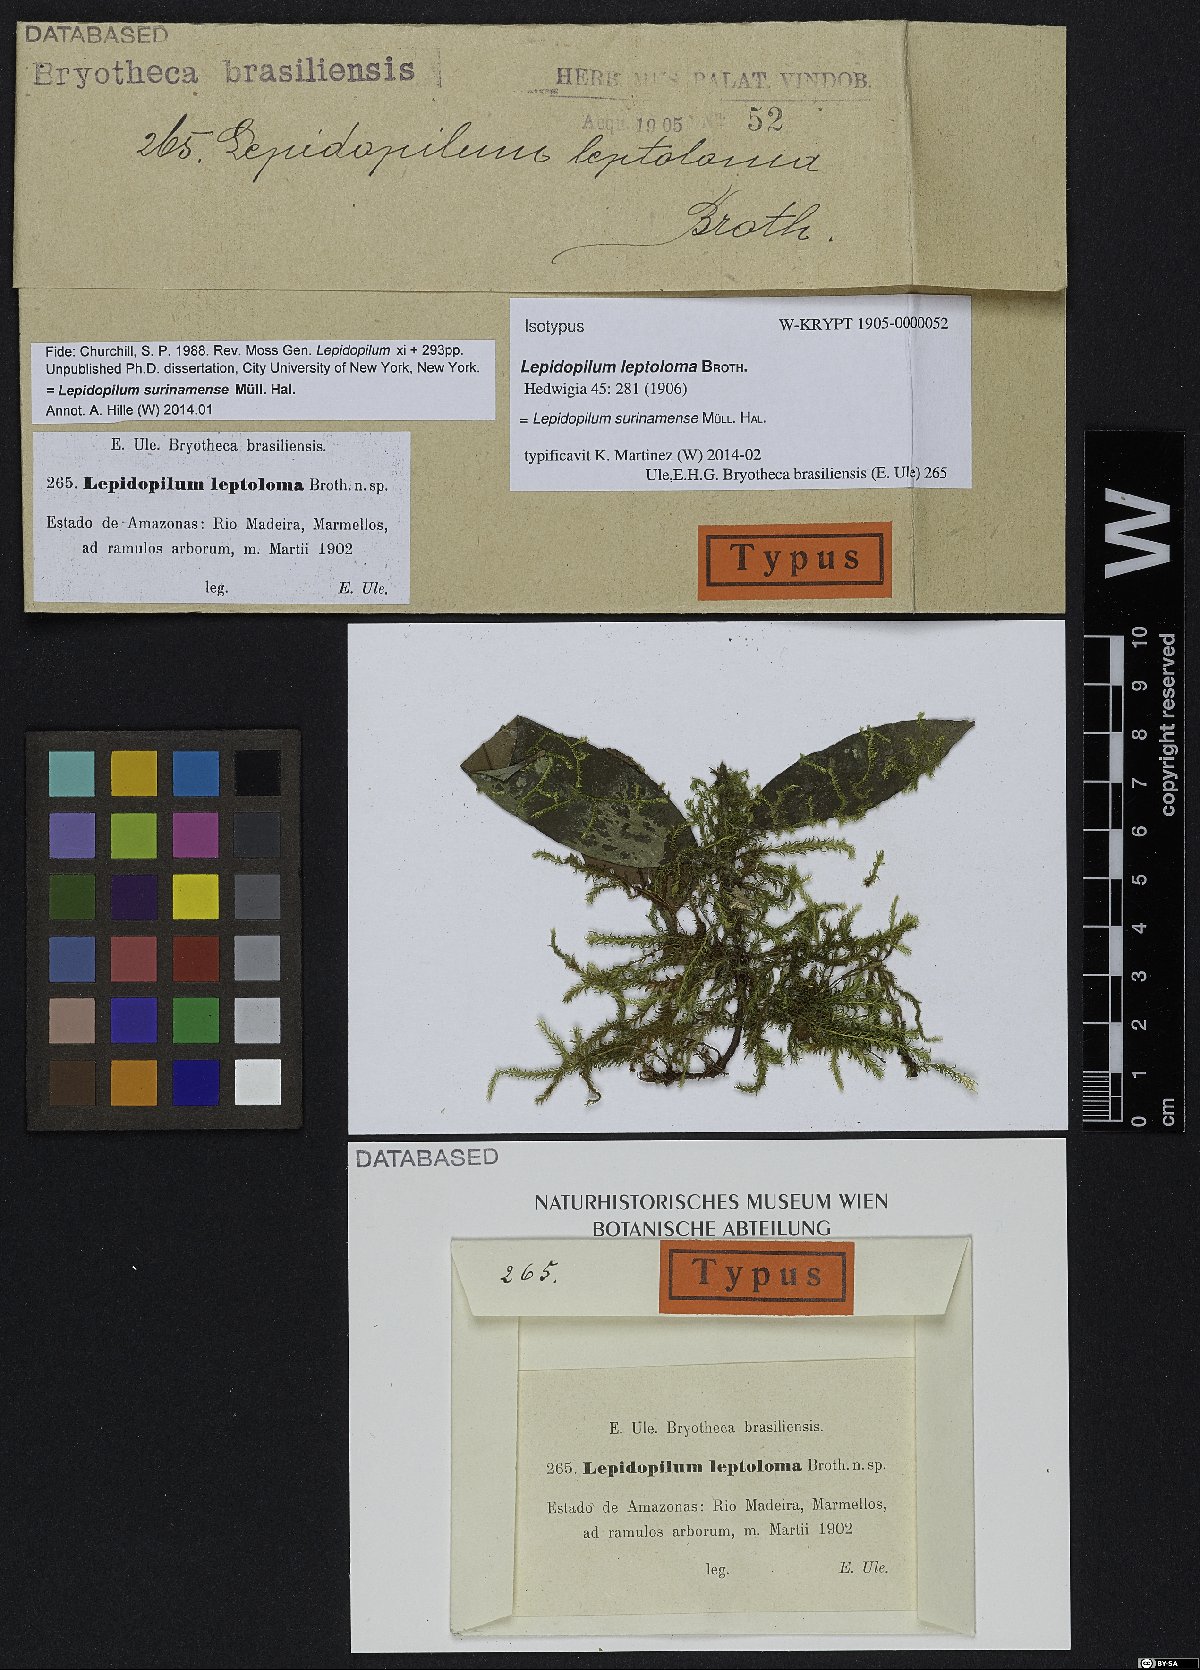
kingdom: Plantae
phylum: Bryophyta
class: Bryopsida
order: Hookeriales
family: Pilotrichaceae
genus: Lepidopilum
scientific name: Lepidopilum surinamense
